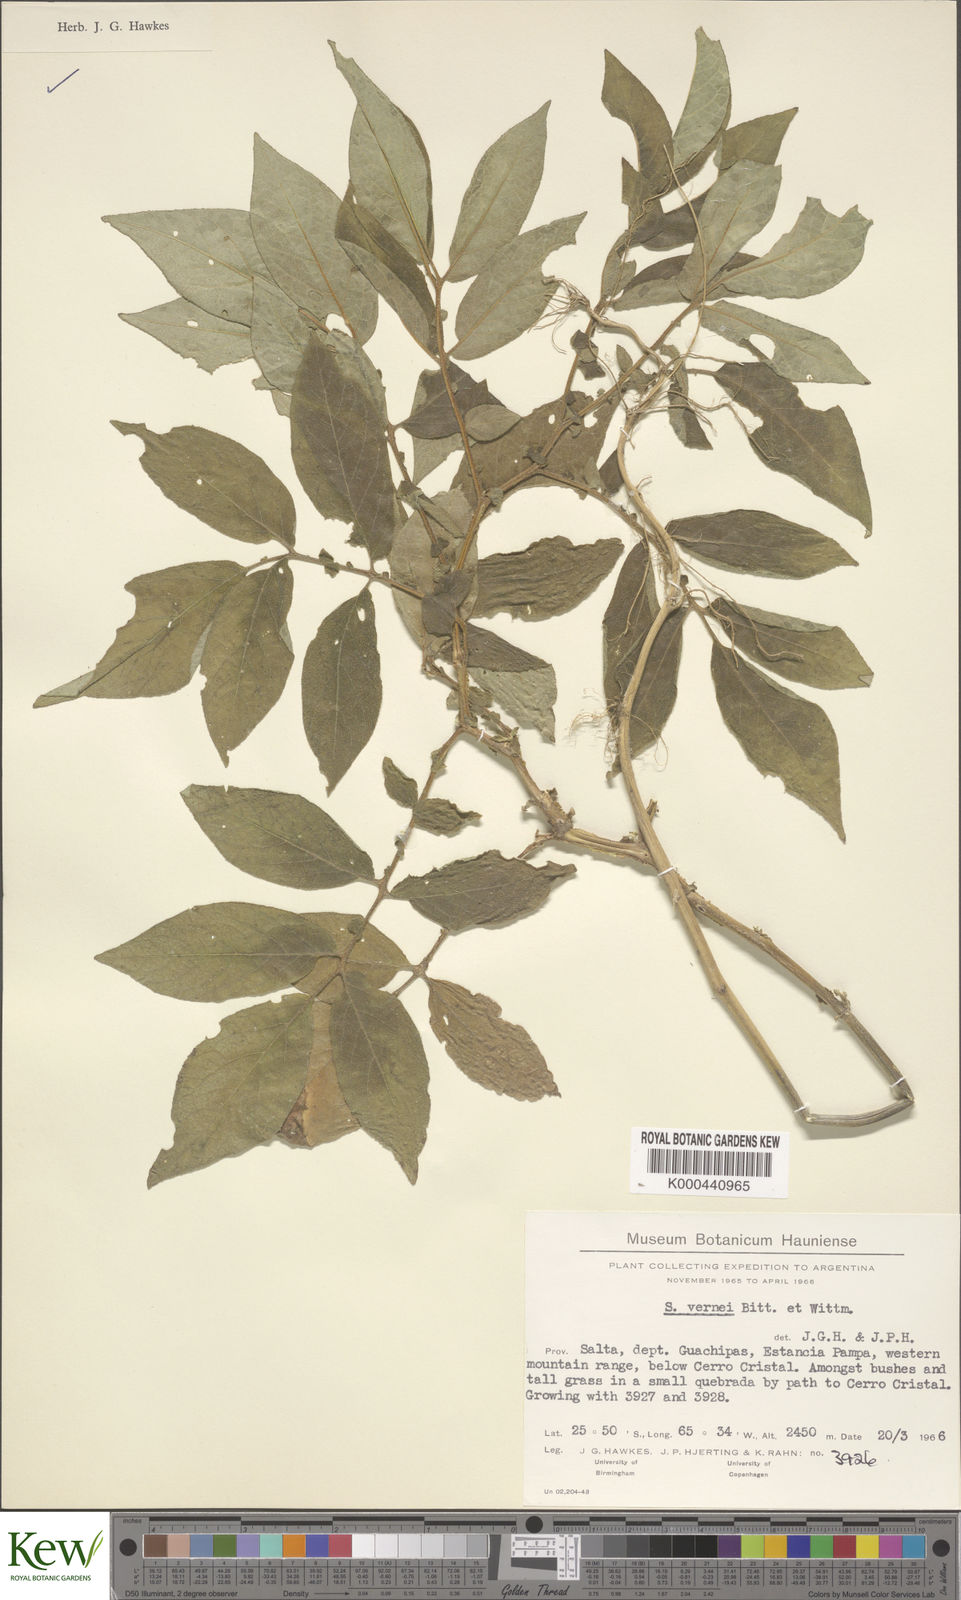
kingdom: Plantae
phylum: Tracheophyta
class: Magnoliopsida
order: Solanales
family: Solanaceae
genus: Solanum
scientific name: Solanum vernei
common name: Purple potato
